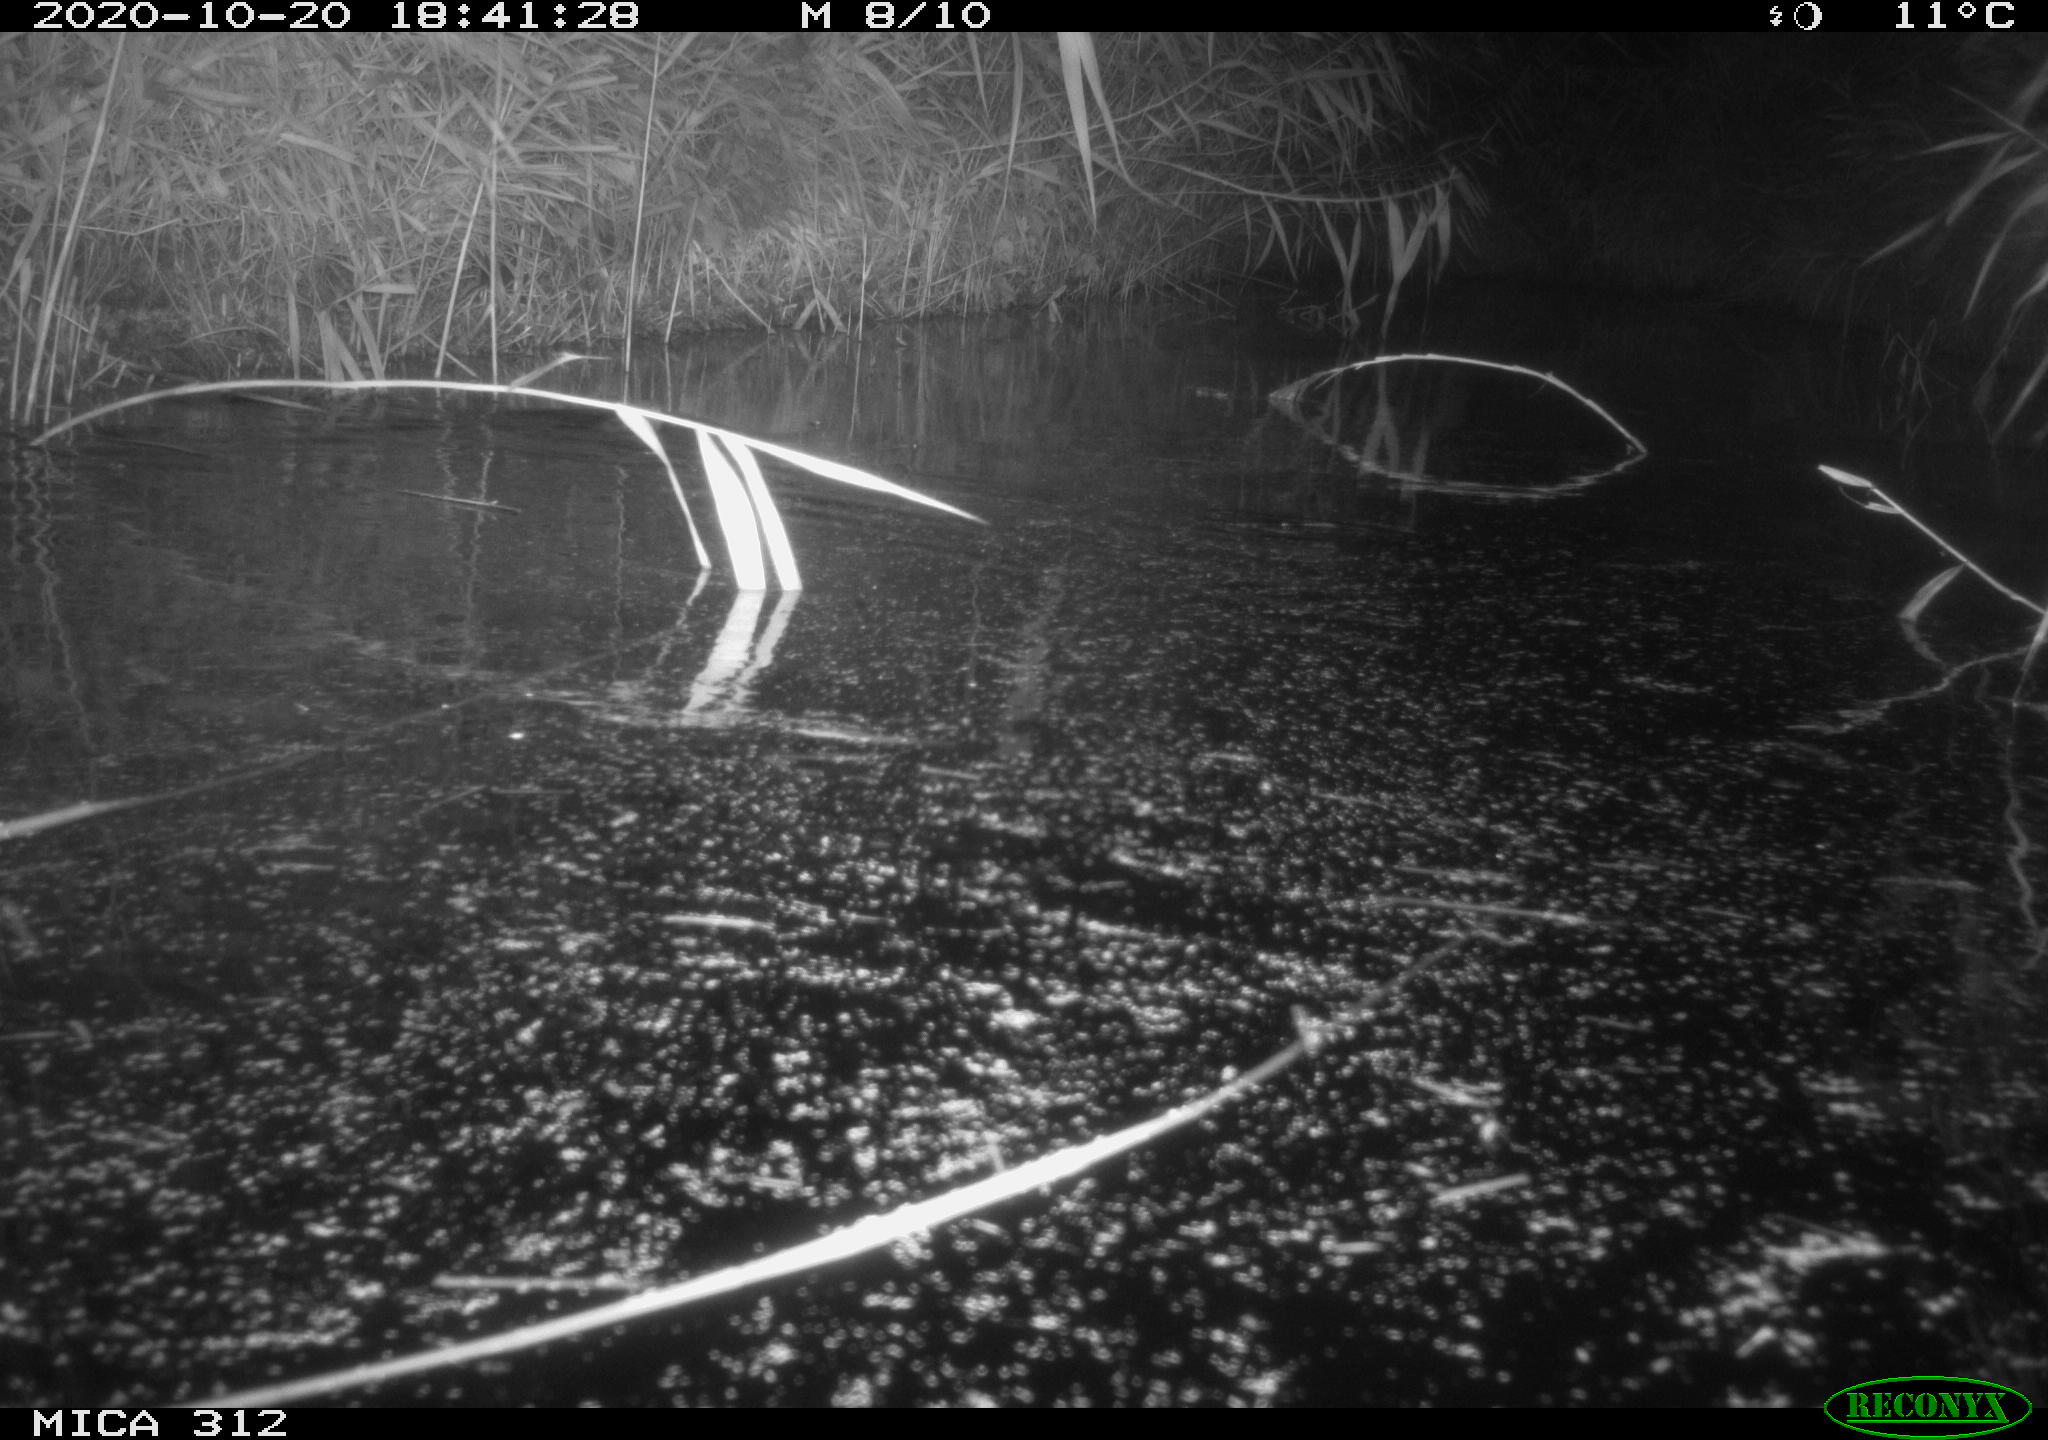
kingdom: Animalia
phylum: Chordata
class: Mammalia
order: Rodentia
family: Muridae
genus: Rattus
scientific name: Rattus norvegicus
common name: Brown rat
